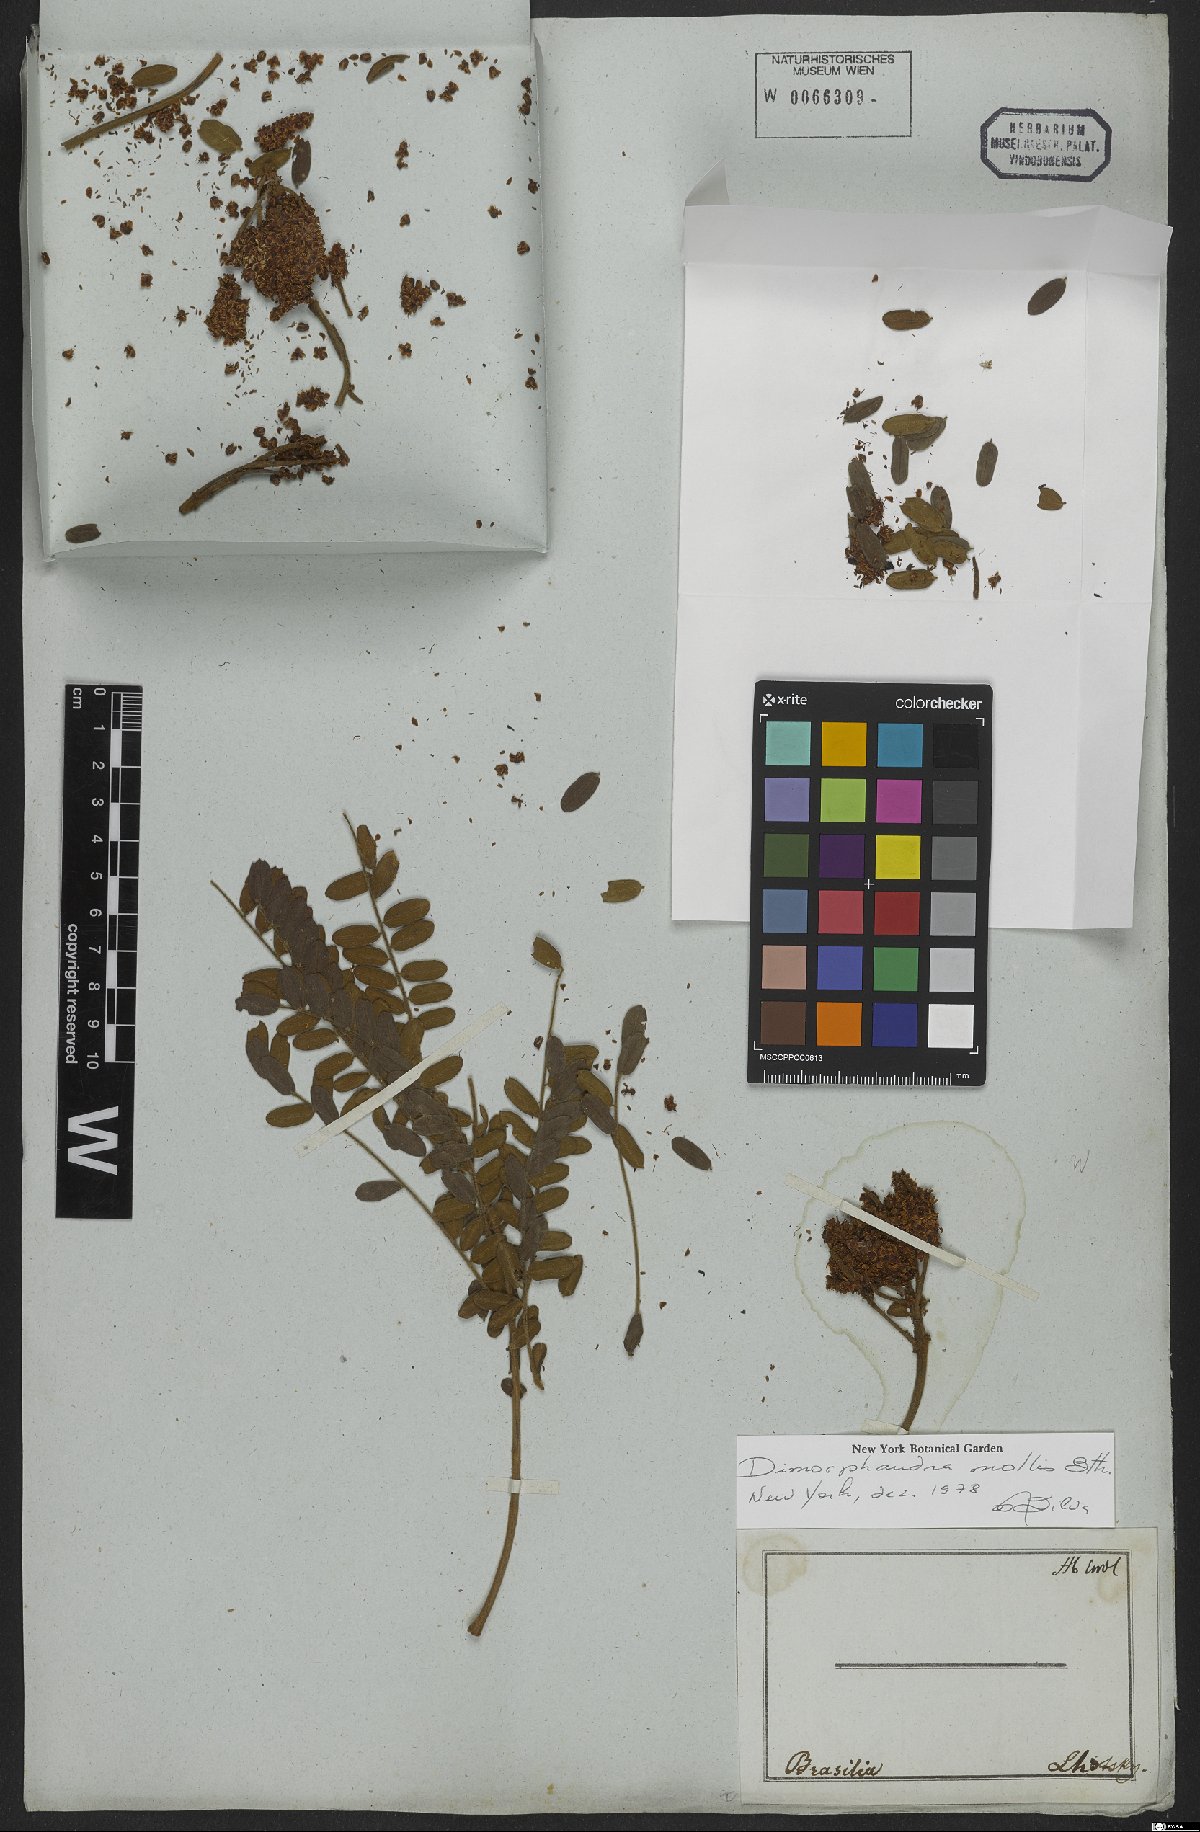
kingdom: Plantae
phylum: Tracheophyta
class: Magnoliopsida
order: Fabales
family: Fabaceae
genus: Dimorphandra
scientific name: Dimorphandra mollis
